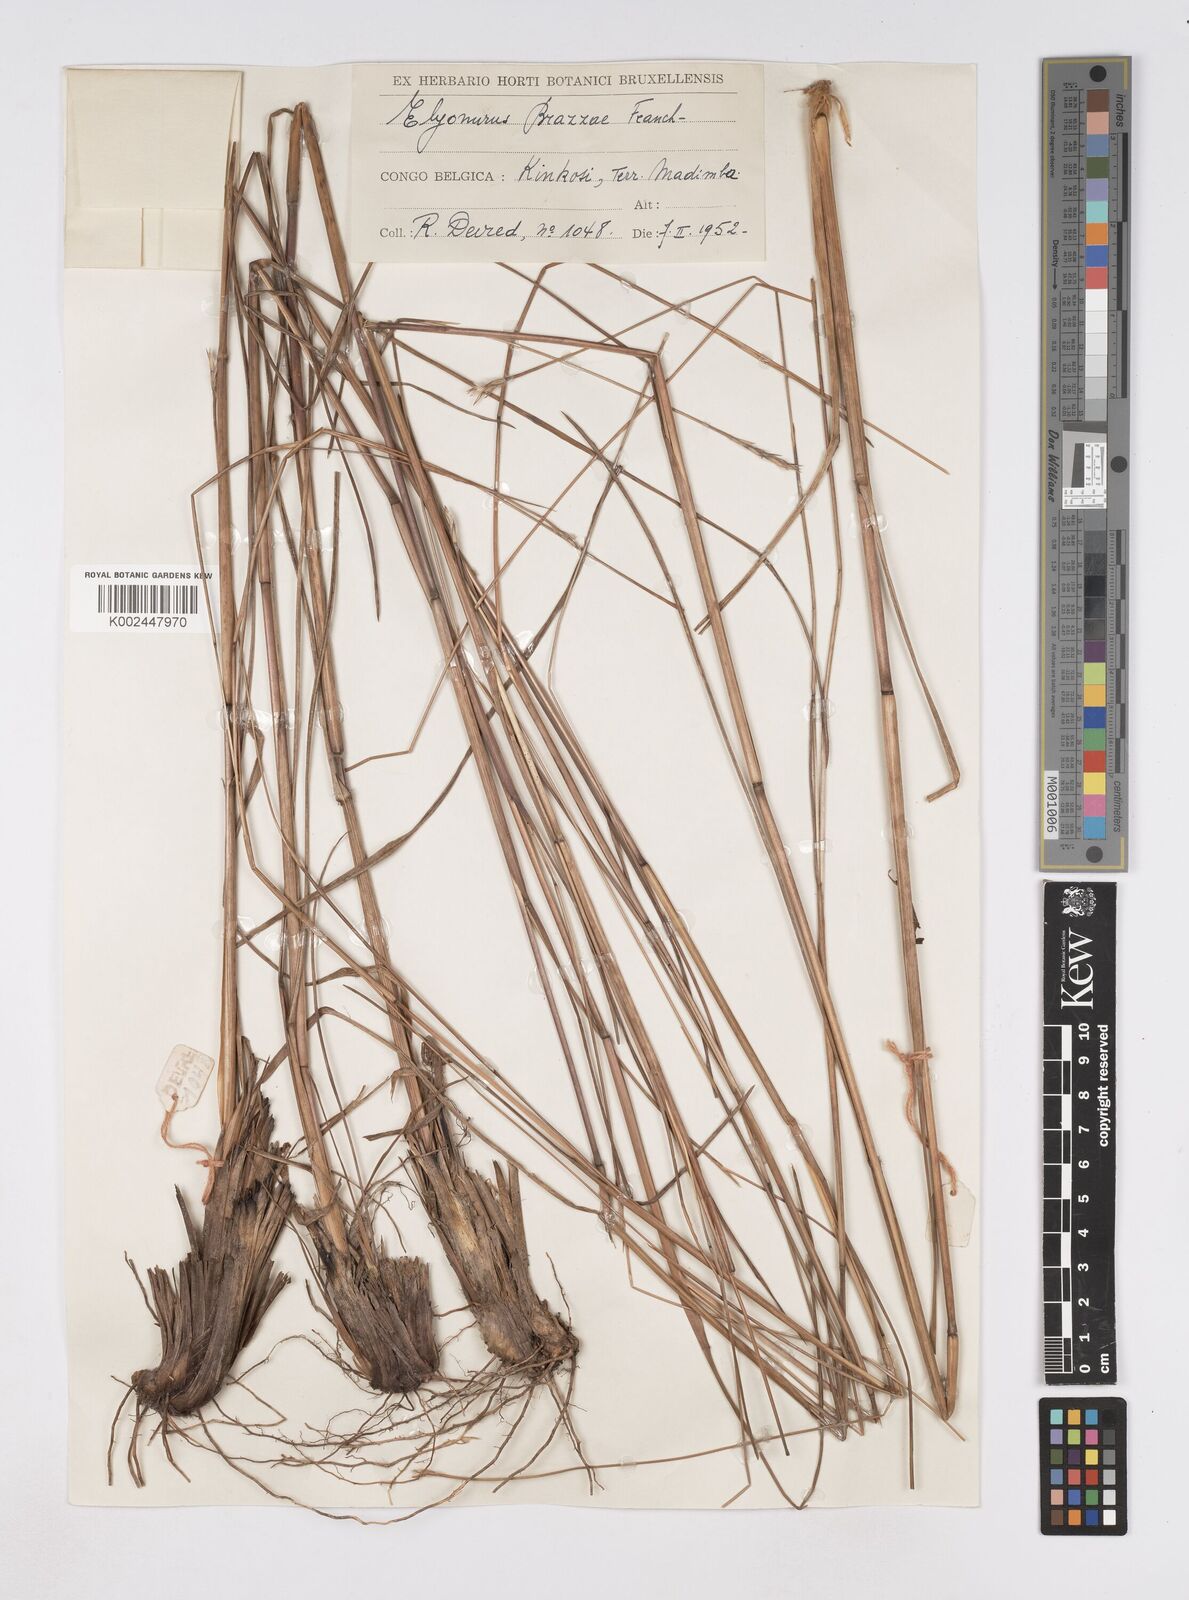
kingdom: Plantae
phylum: Tracheophyta
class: Liliopsida
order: Poales
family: Poaceae
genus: Elionurus
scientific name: Elionurus platypus
